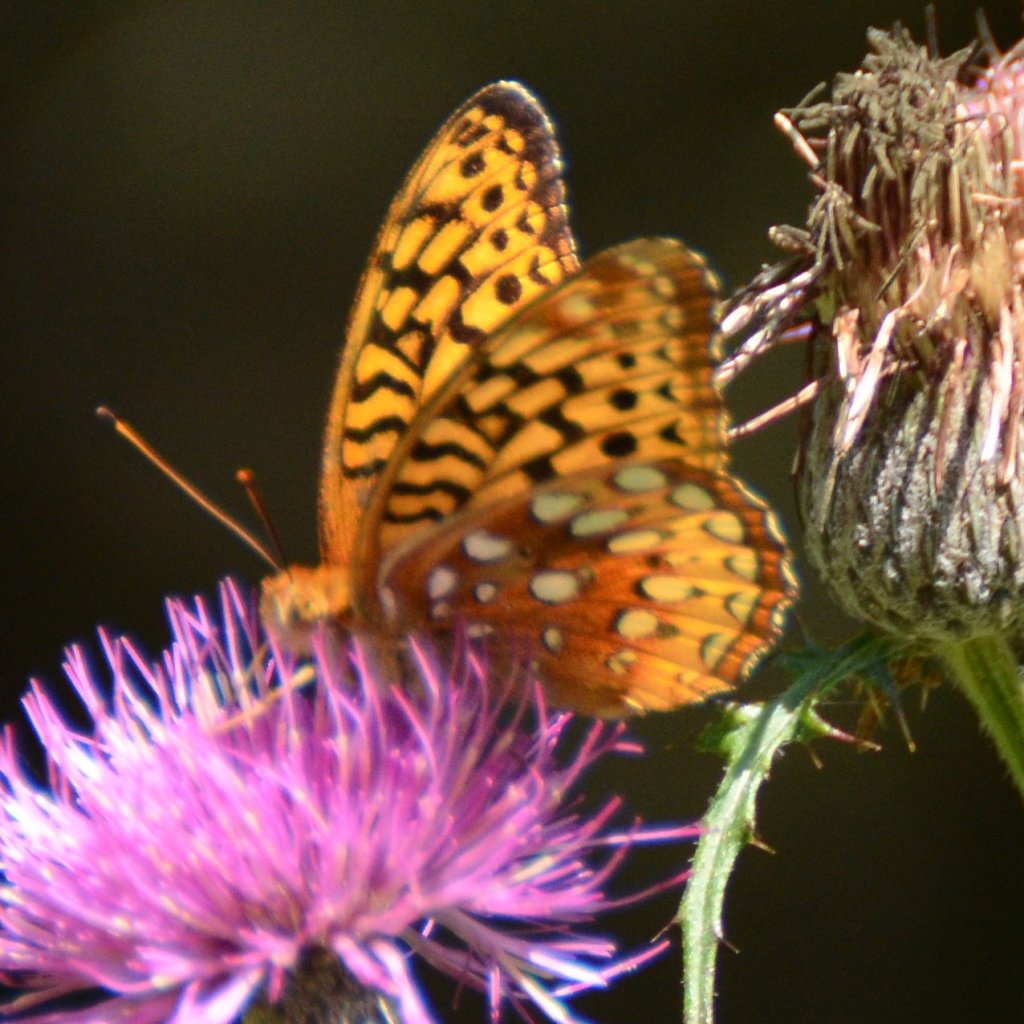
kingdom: Animalia
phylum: Arthropoda
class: Insecta
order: Lepidoptera
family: Nymphalidae
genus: Speyeria
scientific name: Speyeria cybele
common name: Great Spangled Fritillary
